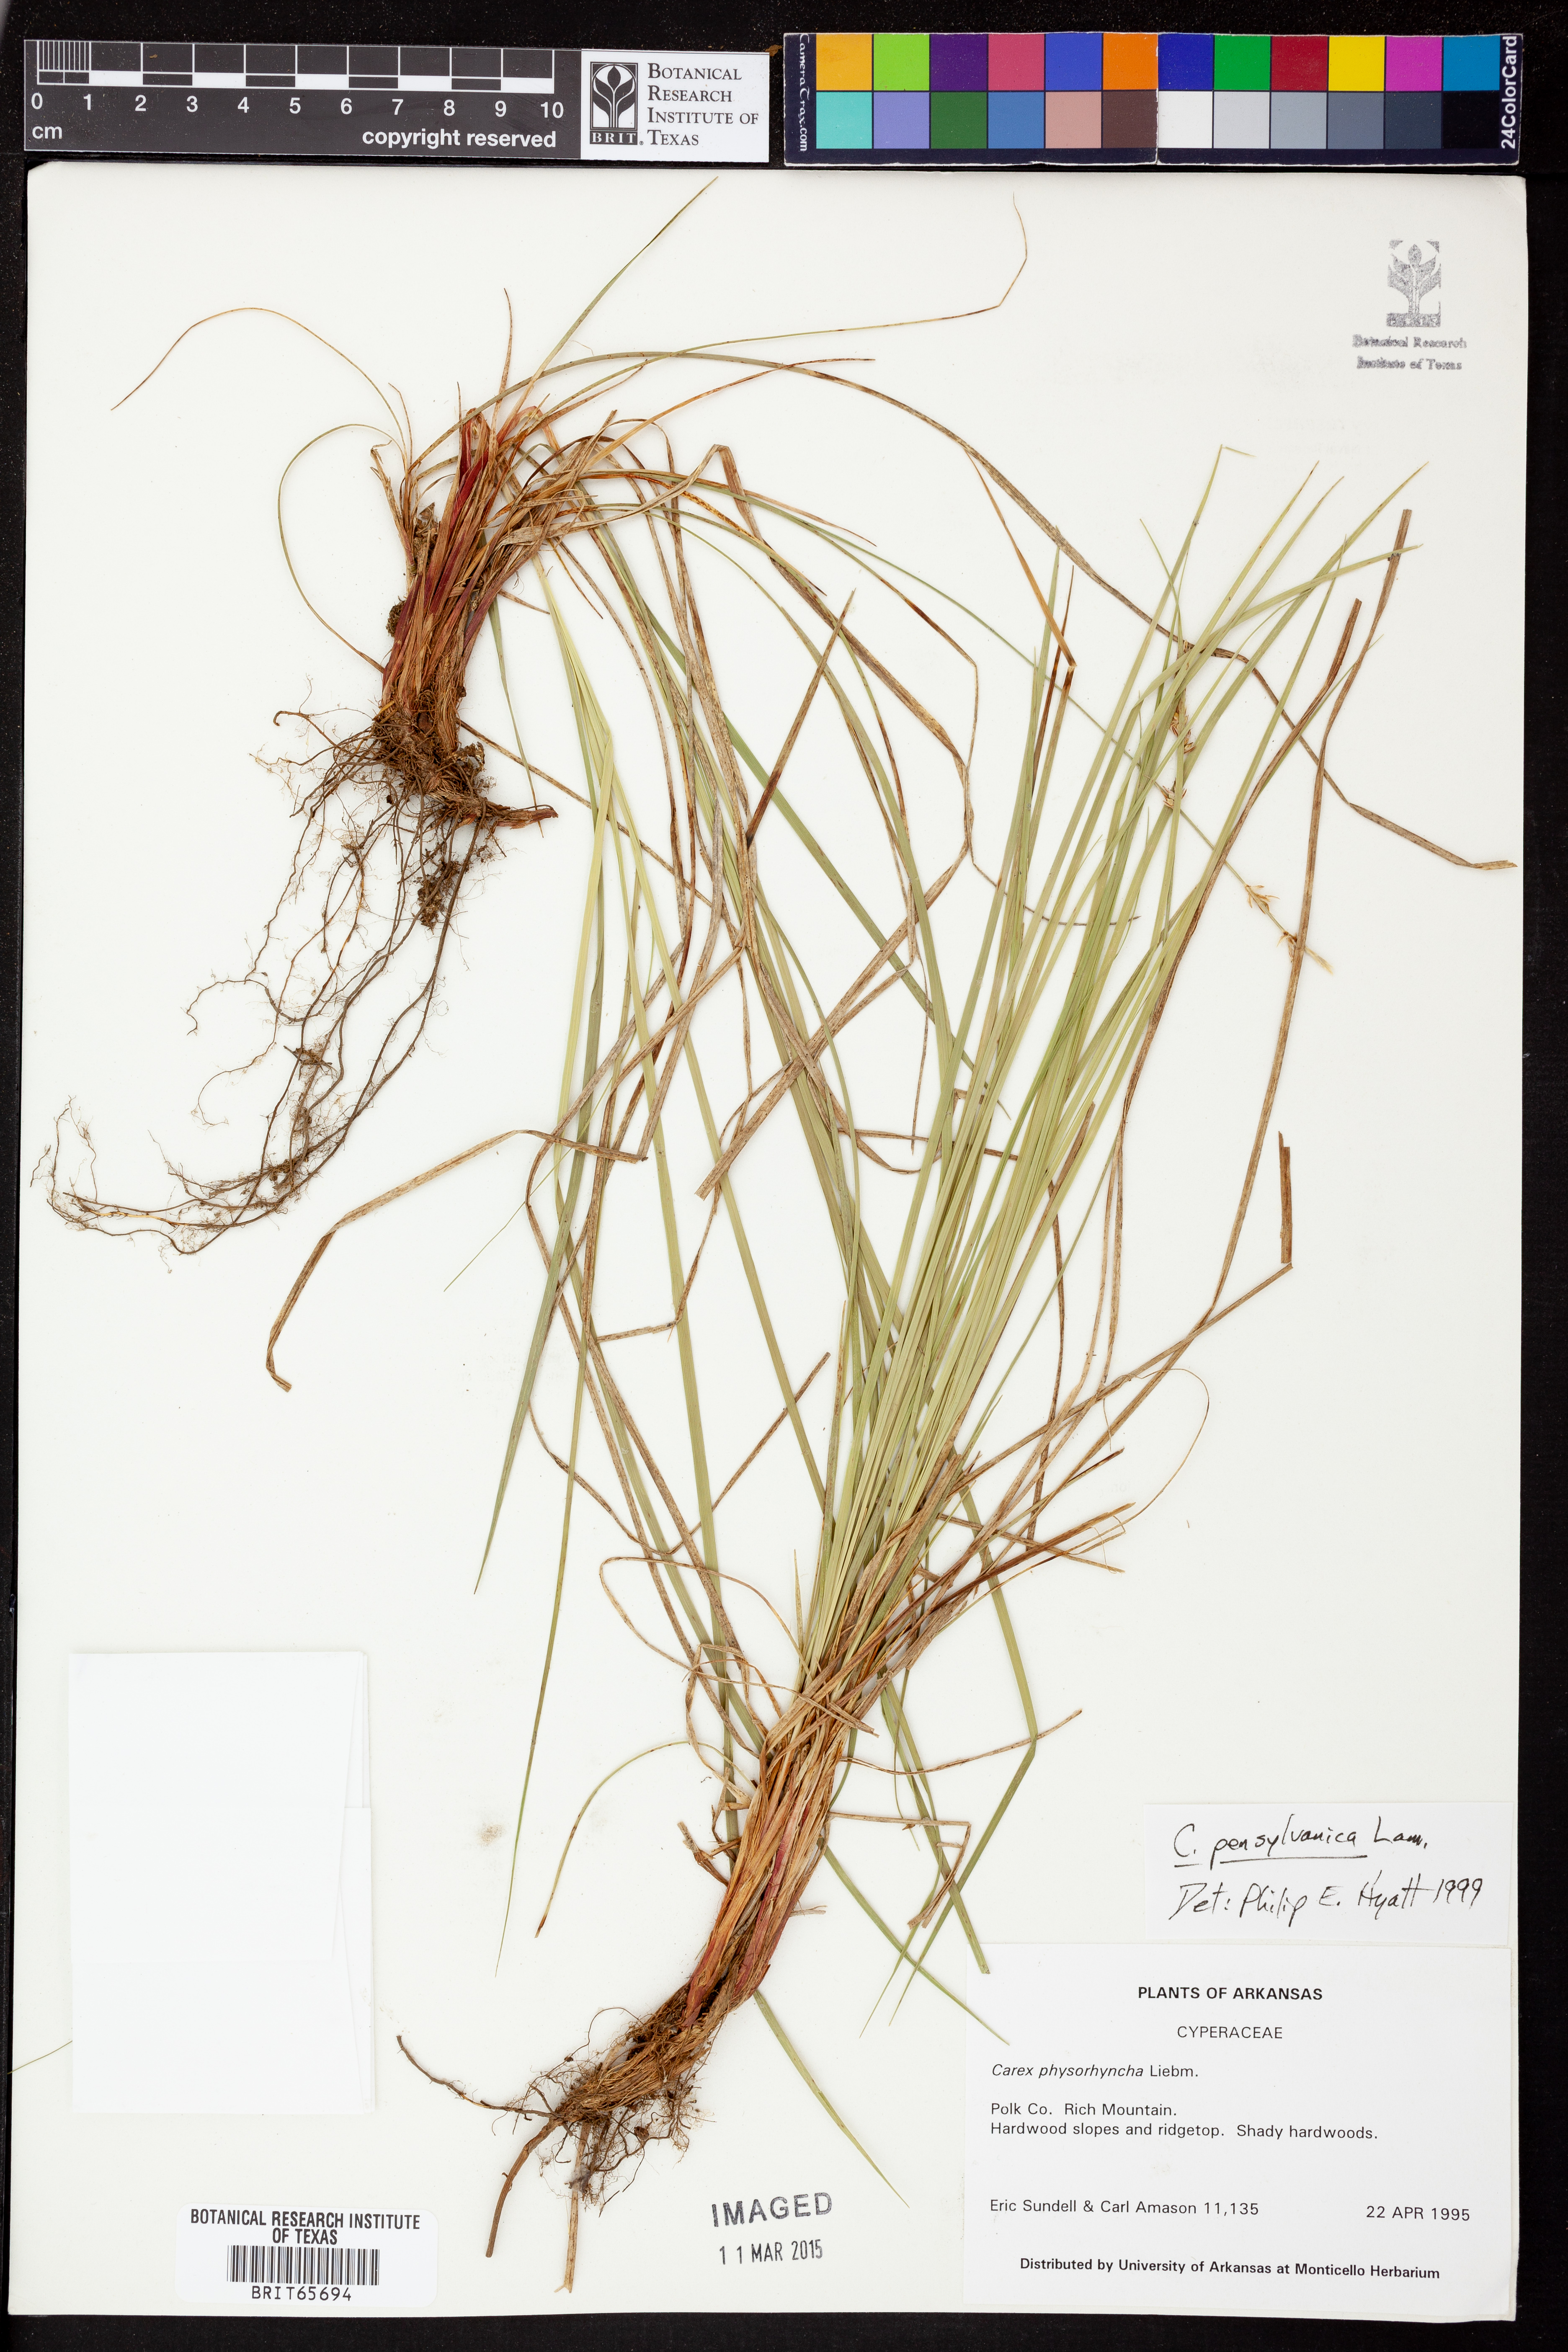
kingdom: Plantae
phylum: Tracheophyta
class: Liliopsida
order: Poales
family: Cyperaceae
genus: Carex
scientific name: Carex pensylvanica
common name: Common oak sedge
